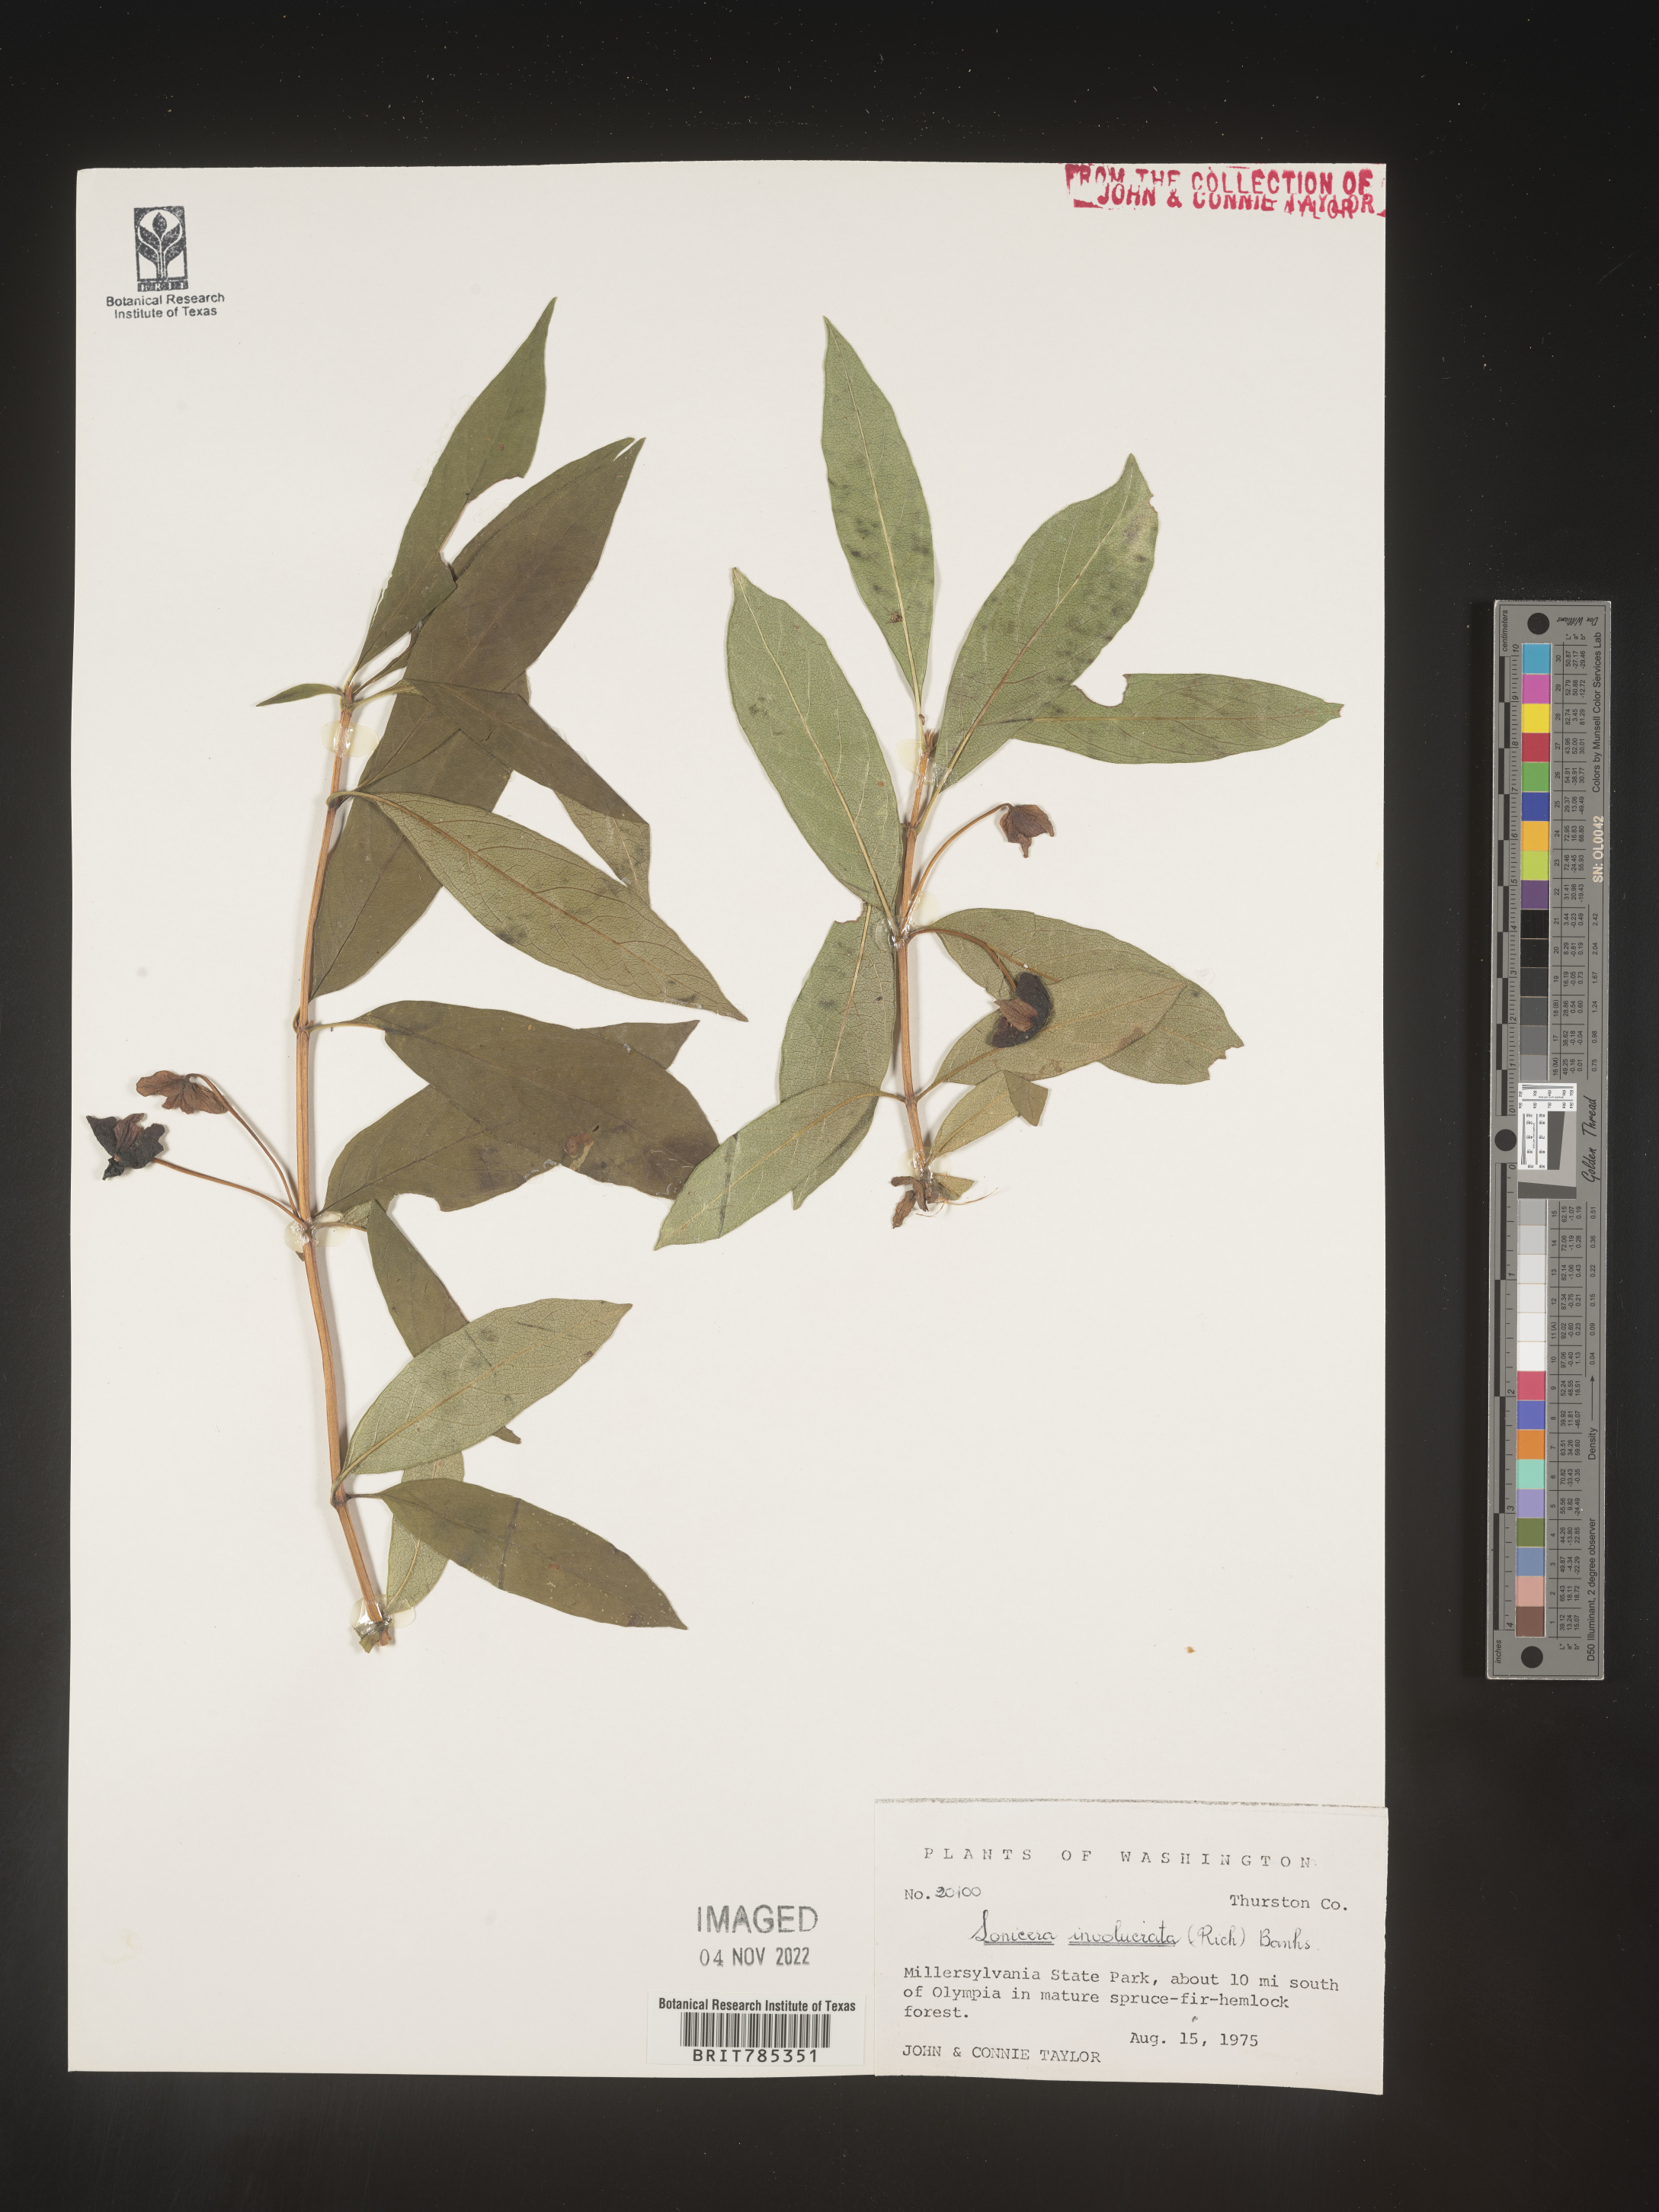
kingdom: Plantae
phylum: Tracheophyta
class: Magnoliopsida
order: Dipsacales
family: Caprifoliaceae
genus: Lonicera
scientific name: Lonicera involucrata
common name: Californian honeysuckle
